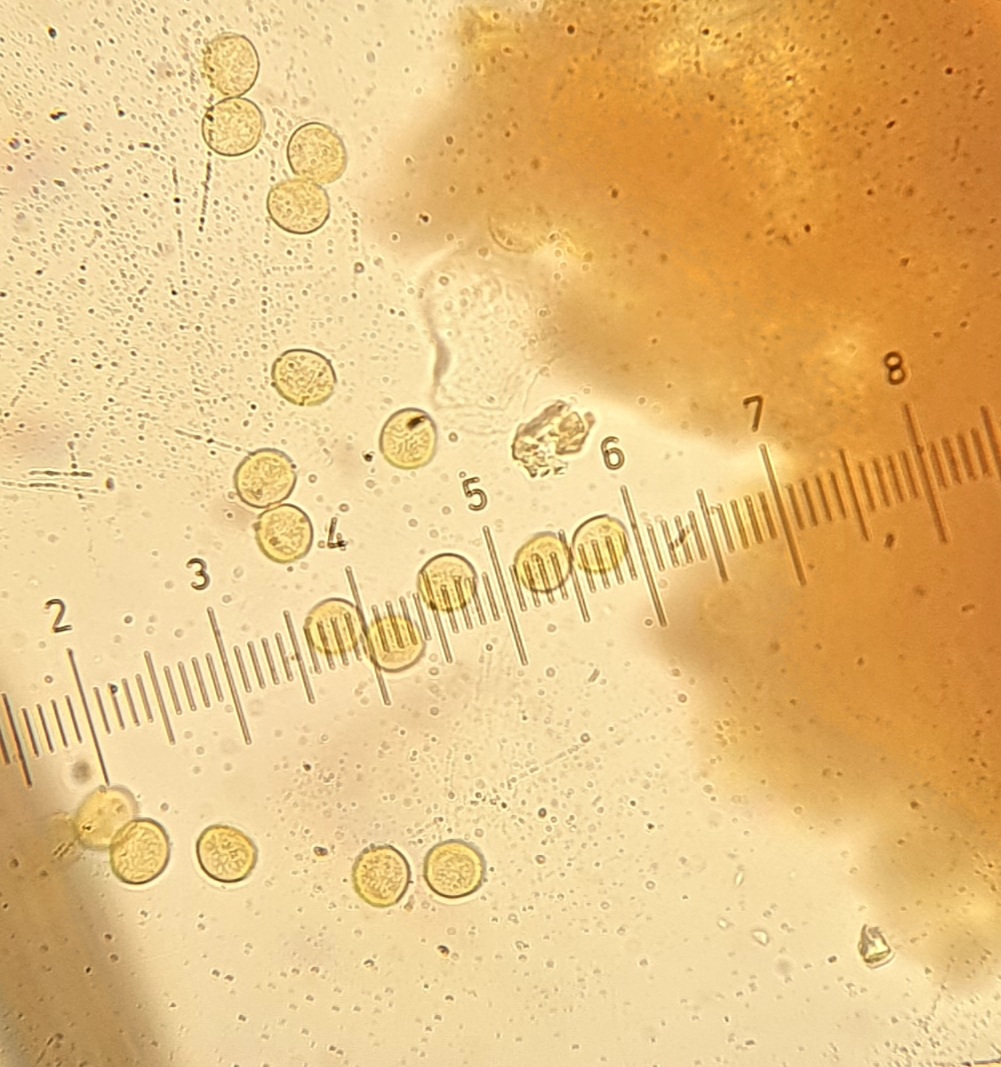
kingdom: Protozoa
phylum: Mycetozoa
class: Myxomycetes
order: Trichiales
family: Trichiaceae
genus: Perichaena
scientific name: Perichaena corticalis
